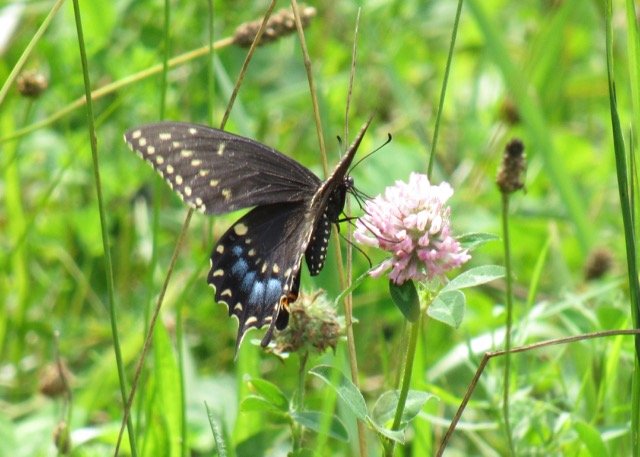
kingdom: Animalia
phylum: Arthropoda
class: Insecta
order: Lepidoptera
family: Papilionidae
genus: Papilio
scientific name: Papilio polyxenes
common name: Black Swallowtail
